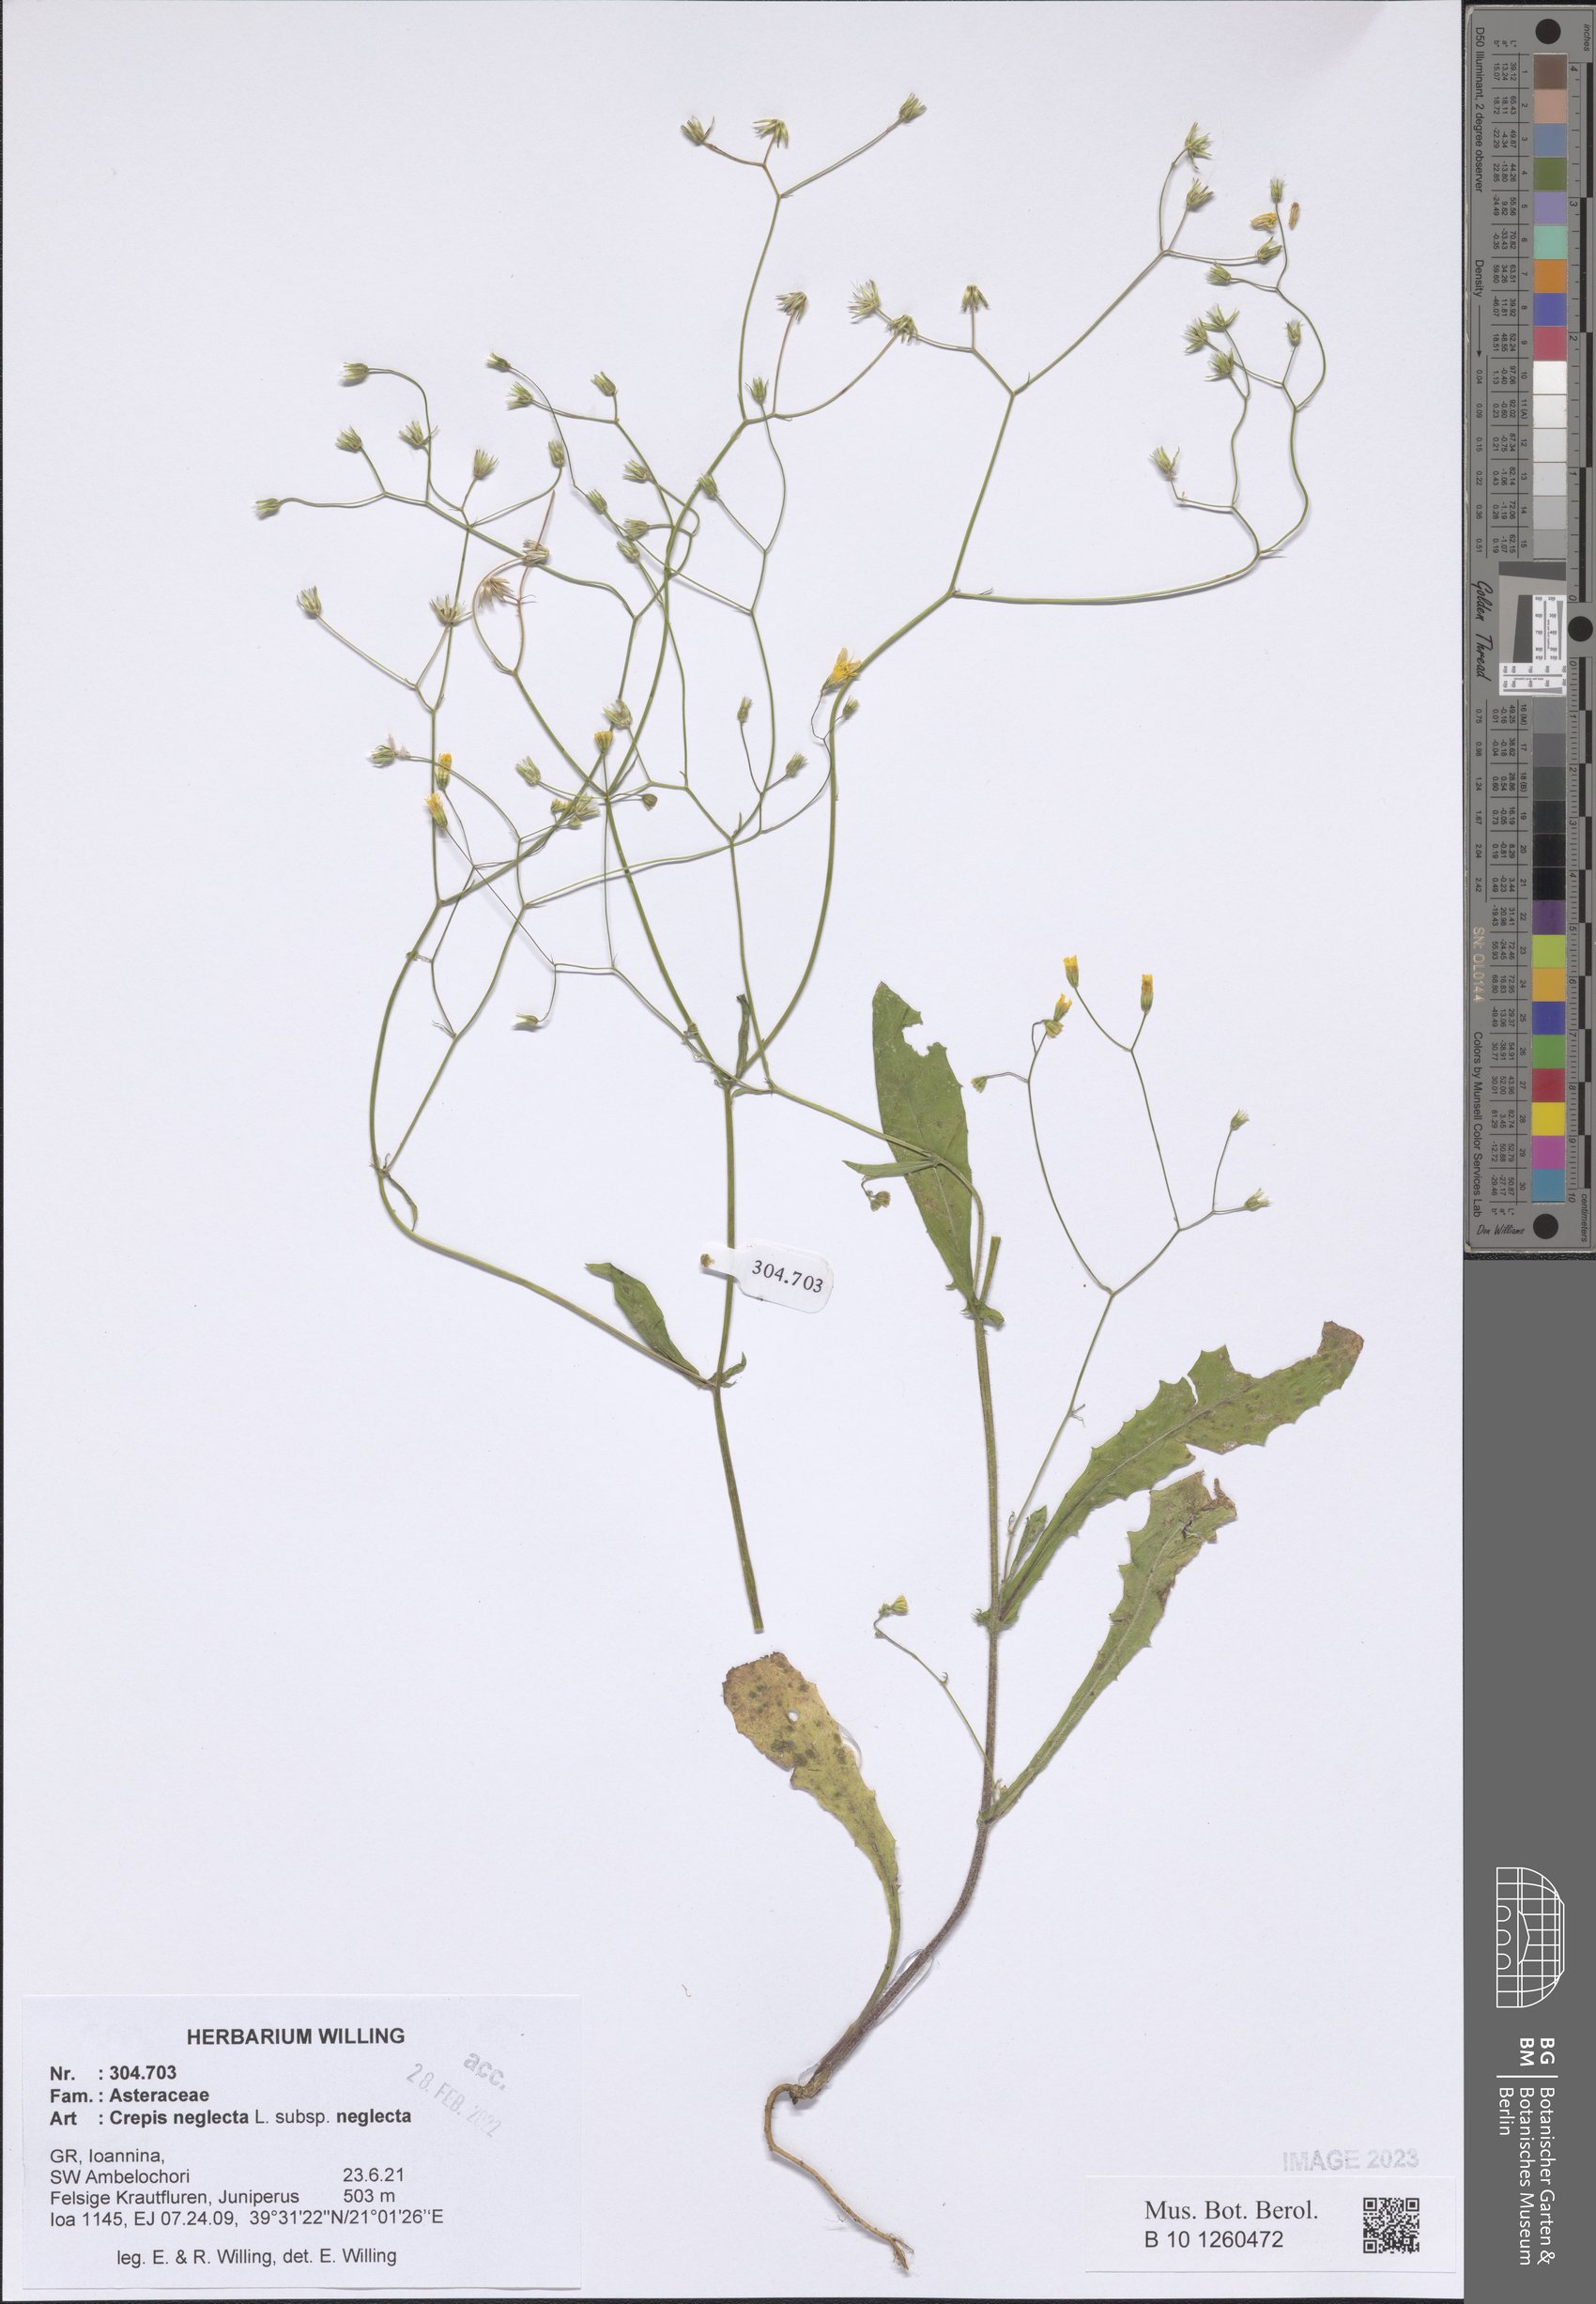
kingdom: Plantae
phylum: Tracheophyta
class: Magnoliopsida
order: Asterales
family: Asteraceae
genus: Crepis
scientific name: Crepis neglecta
